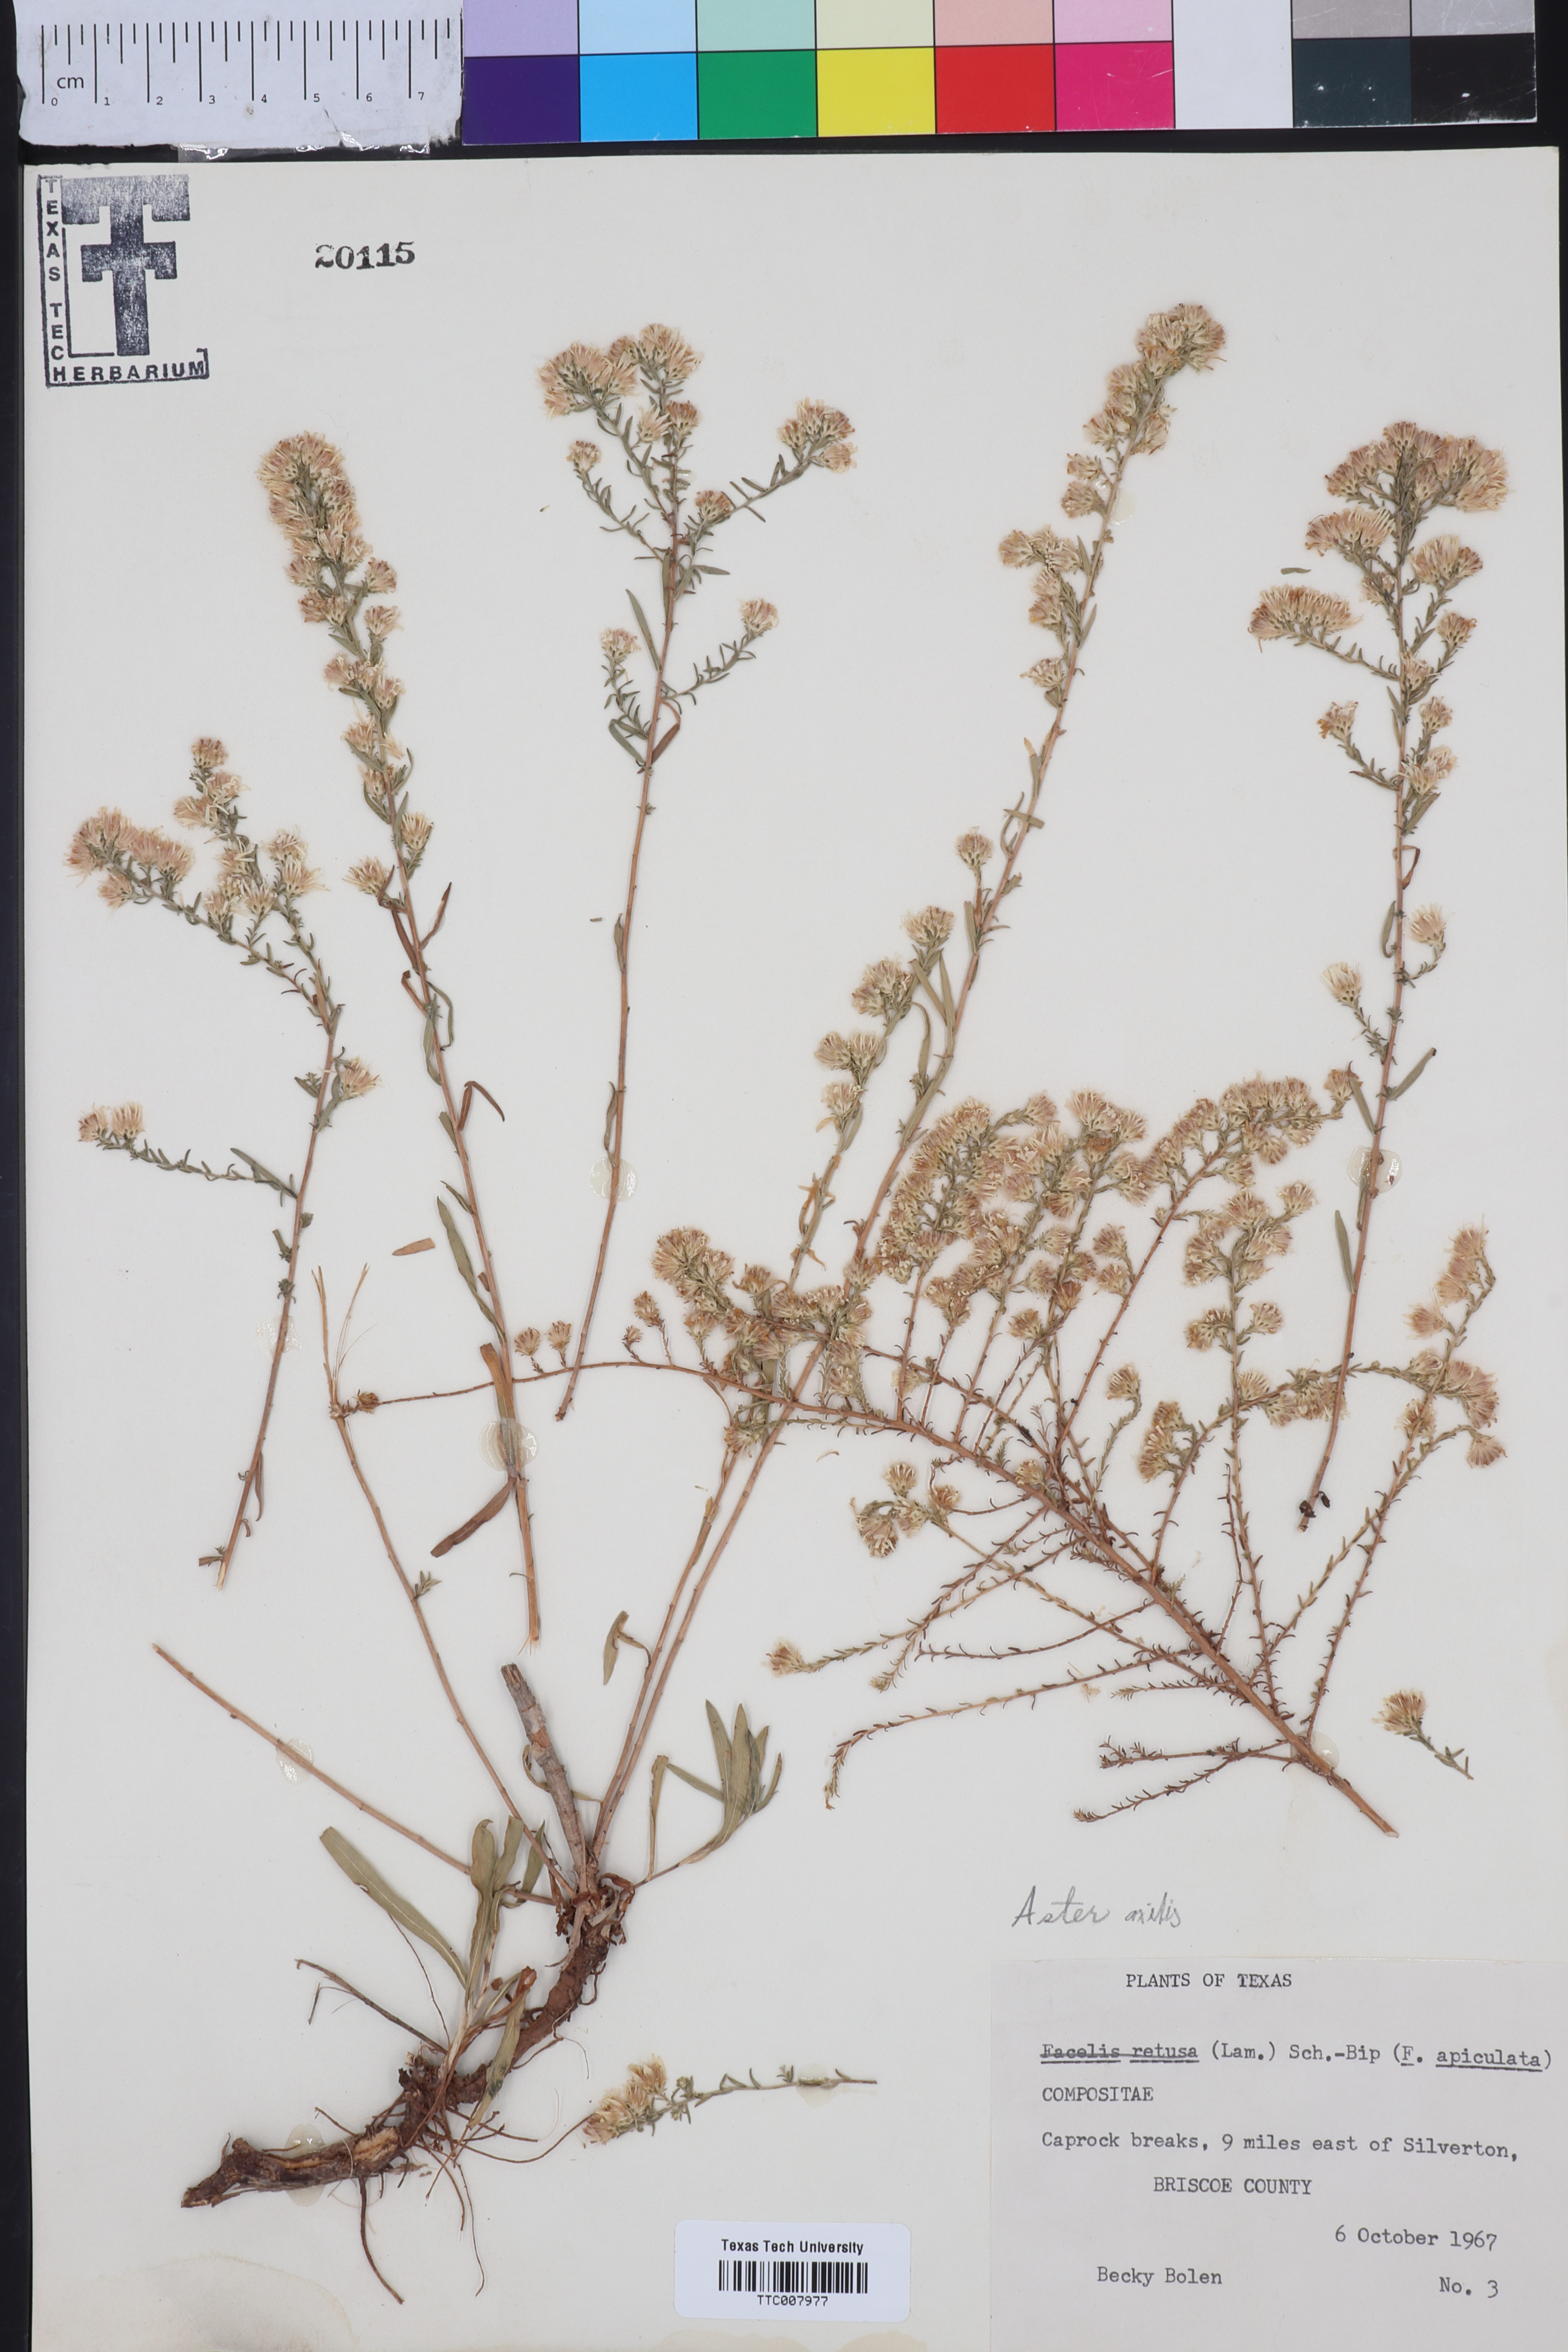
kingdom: Plantae
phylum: Tracheophyta
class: Magnoliopsida
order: Asterales
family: Asteraceae
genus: Aster
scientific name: Aster
